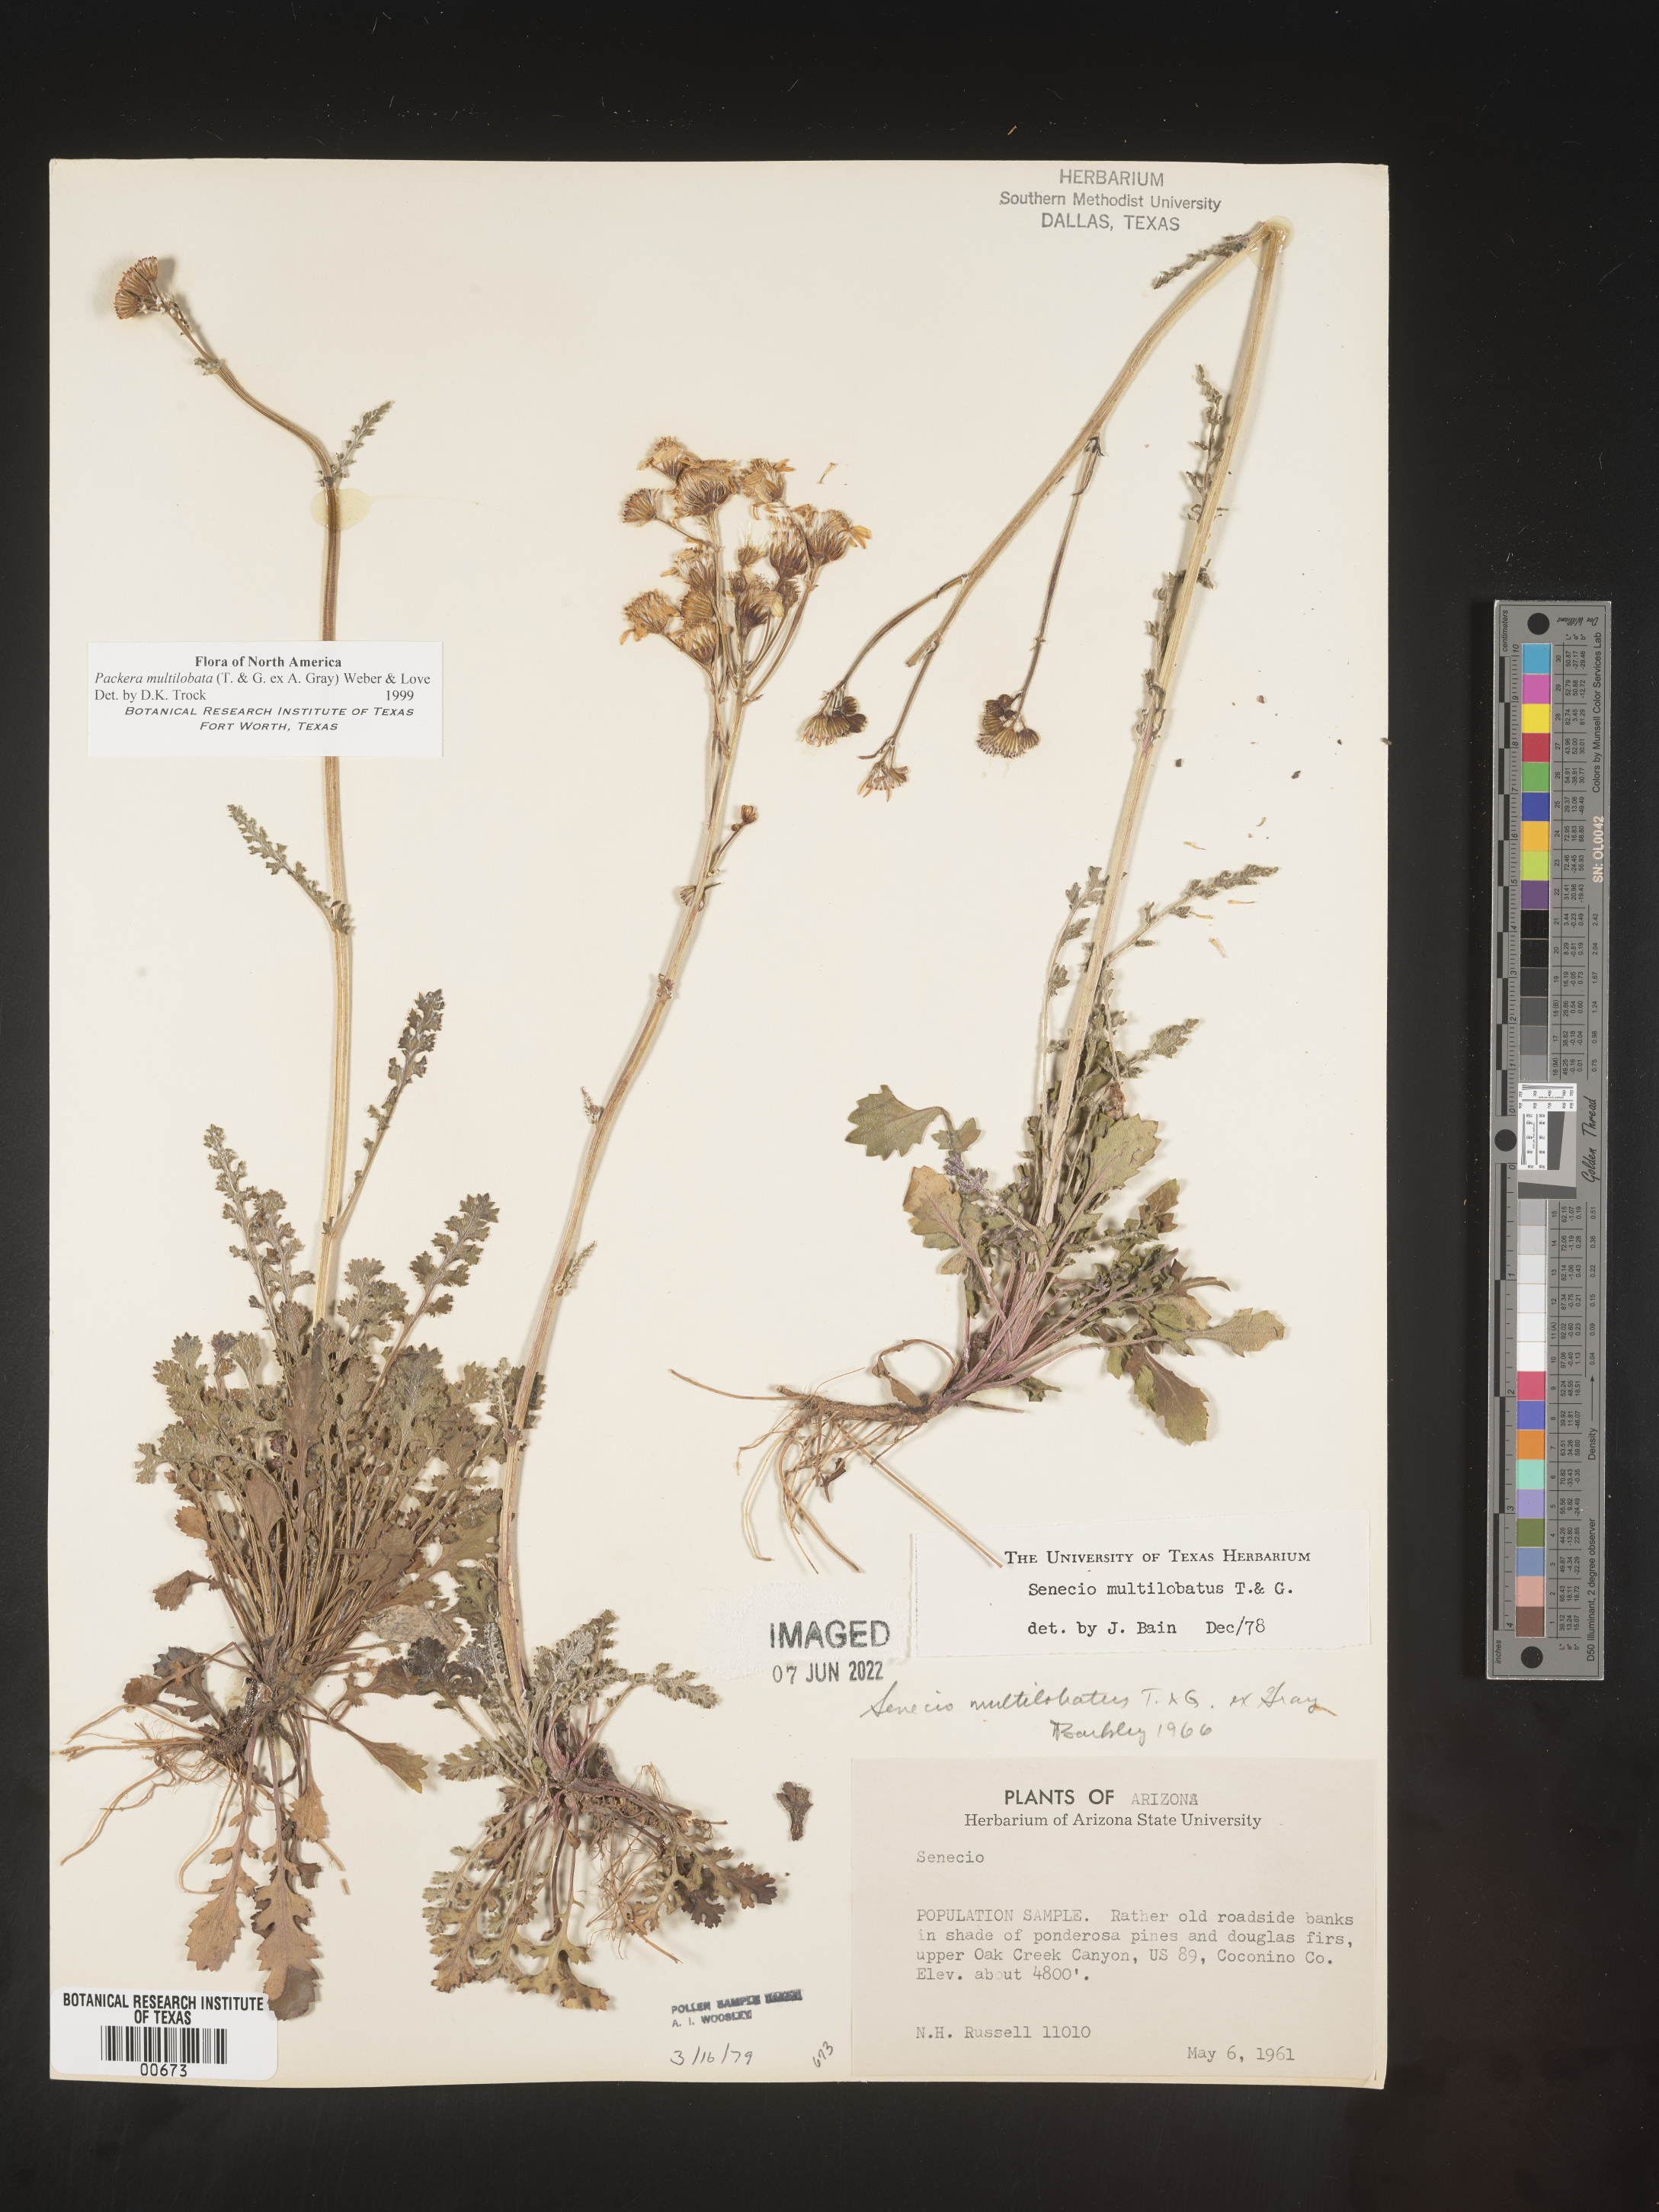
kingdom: Plantae
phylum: Tracheophyta
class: Magnoliopsida
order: Asterales
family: Asteraceae
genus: Packera
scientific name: Packera multilobata
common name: Lobe-leaf groundsel
